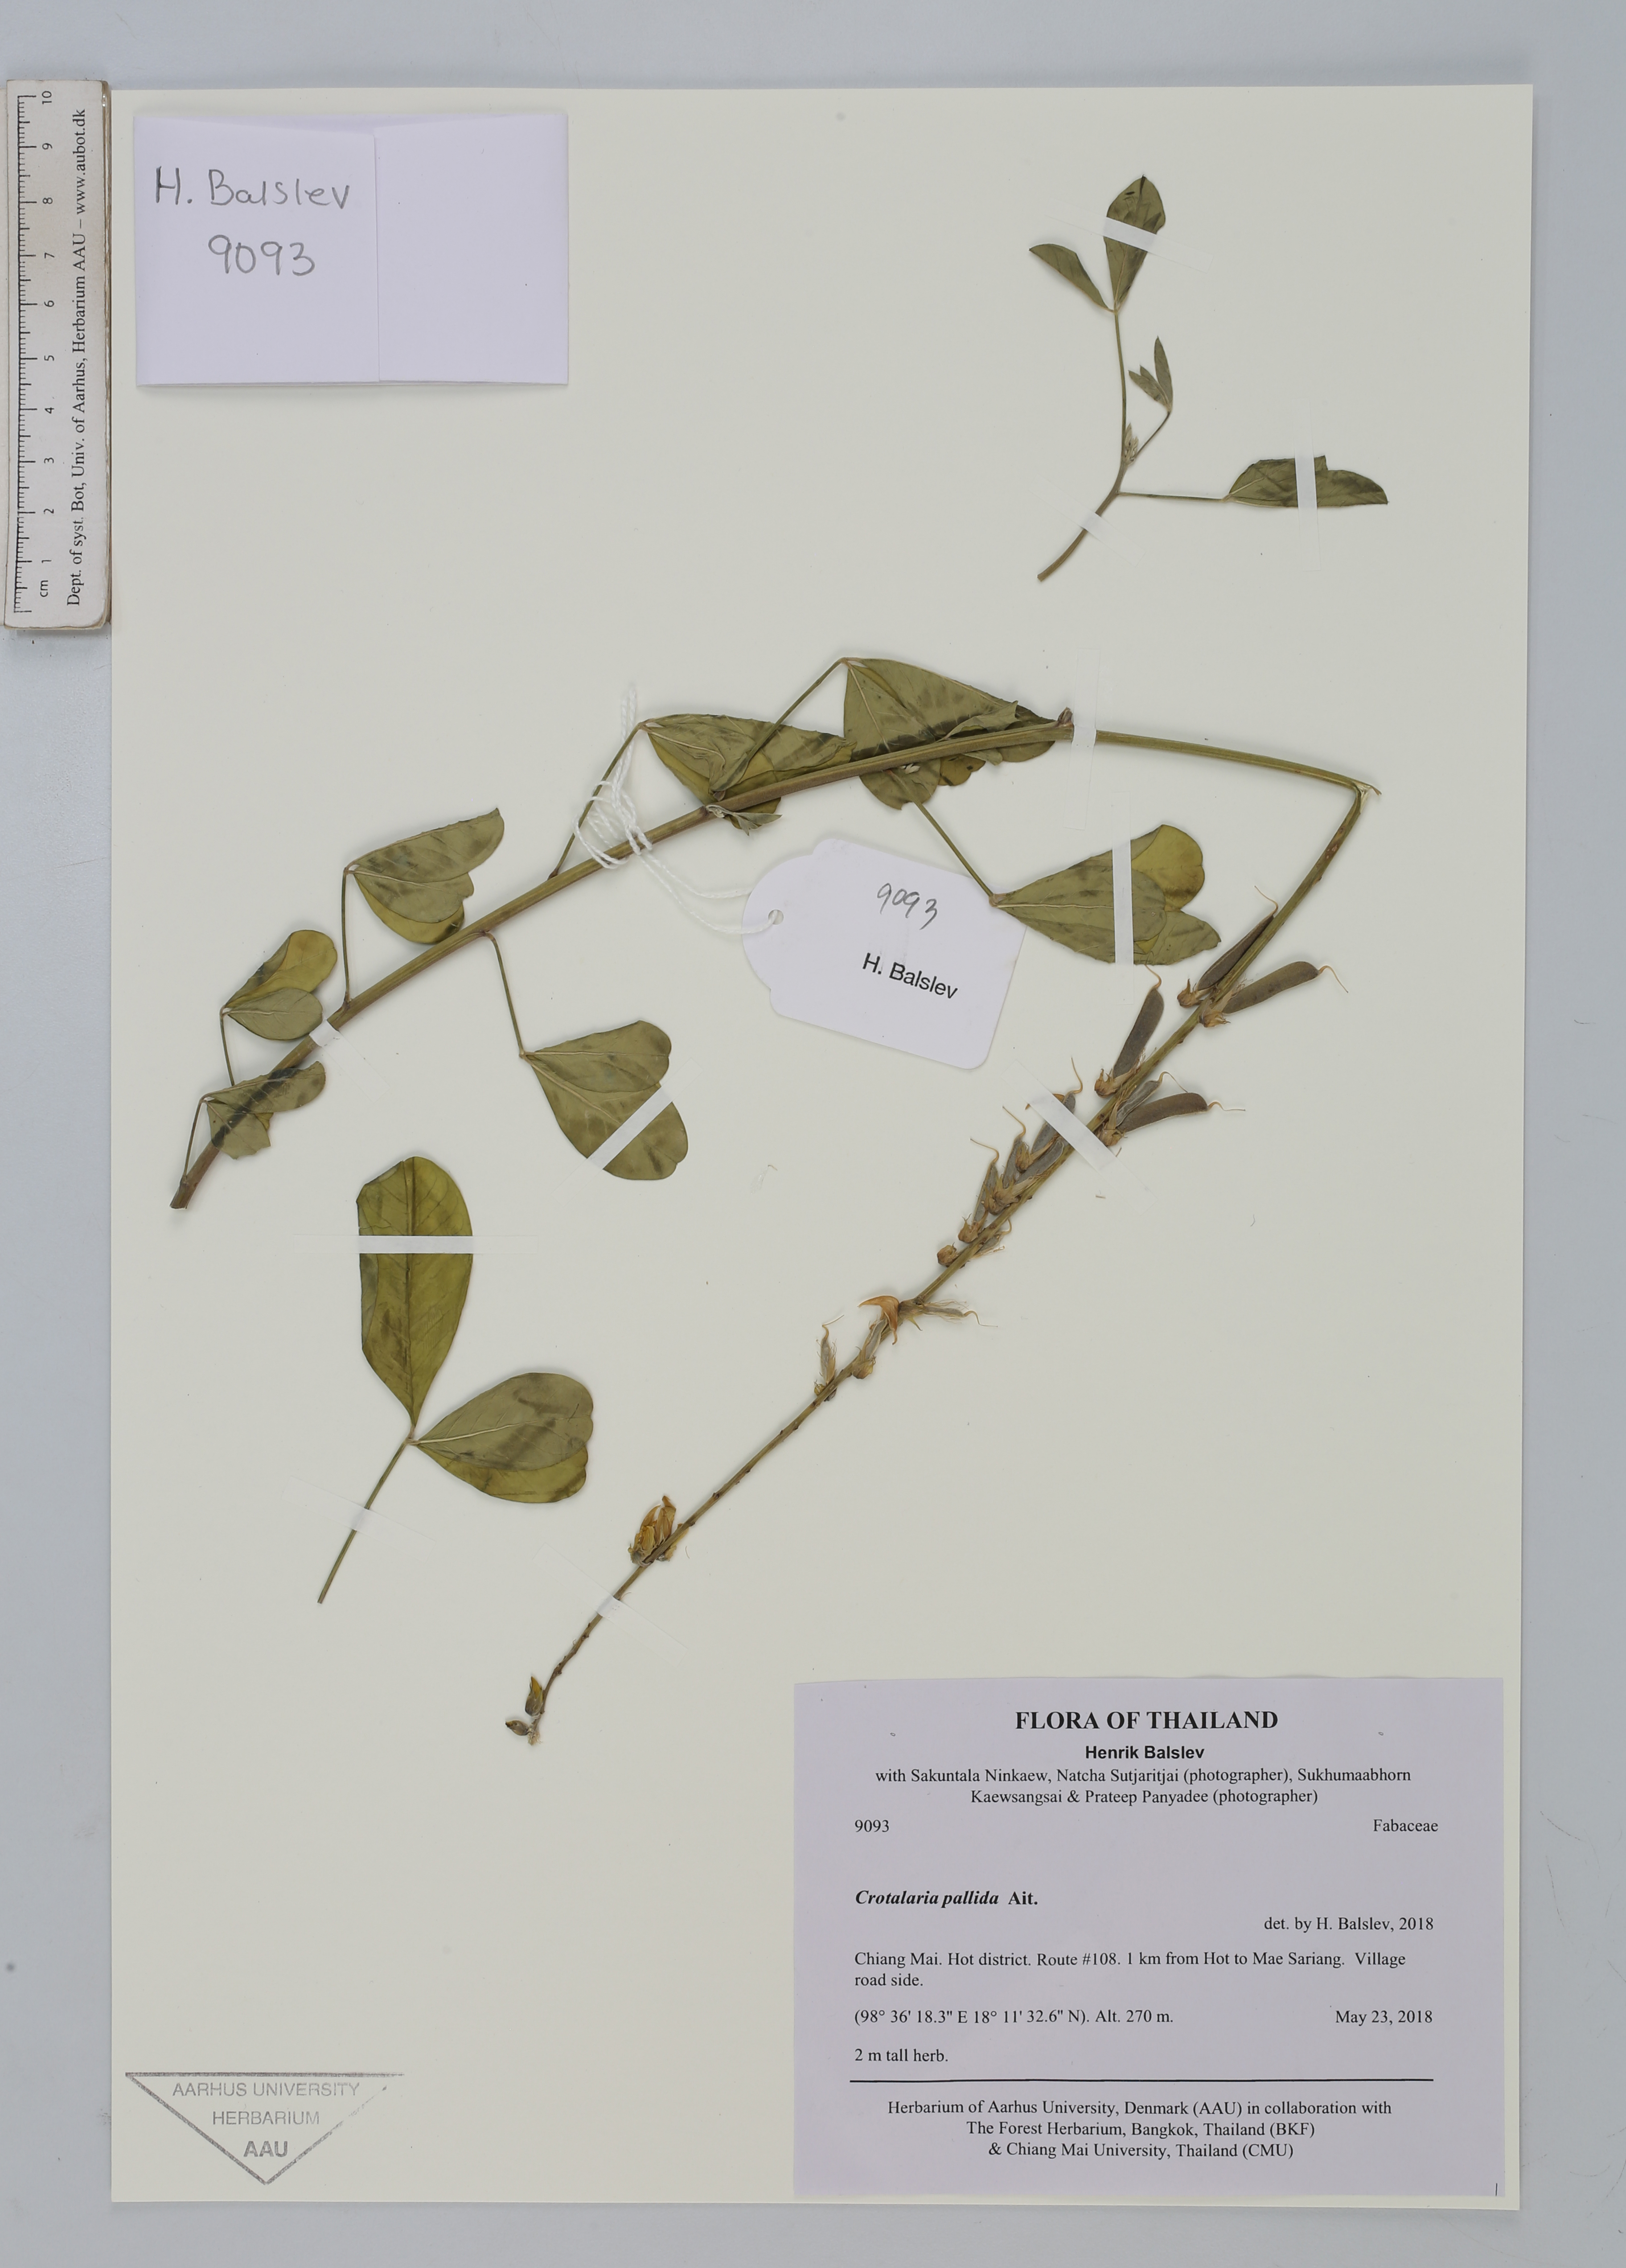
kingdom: Plantae
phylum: Tracheophyta
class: Magnoliopsida
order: Fabales
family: Fabaceae
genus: Crotalaria
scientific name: Crotalaria pallida
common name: Smooth rattlebox
